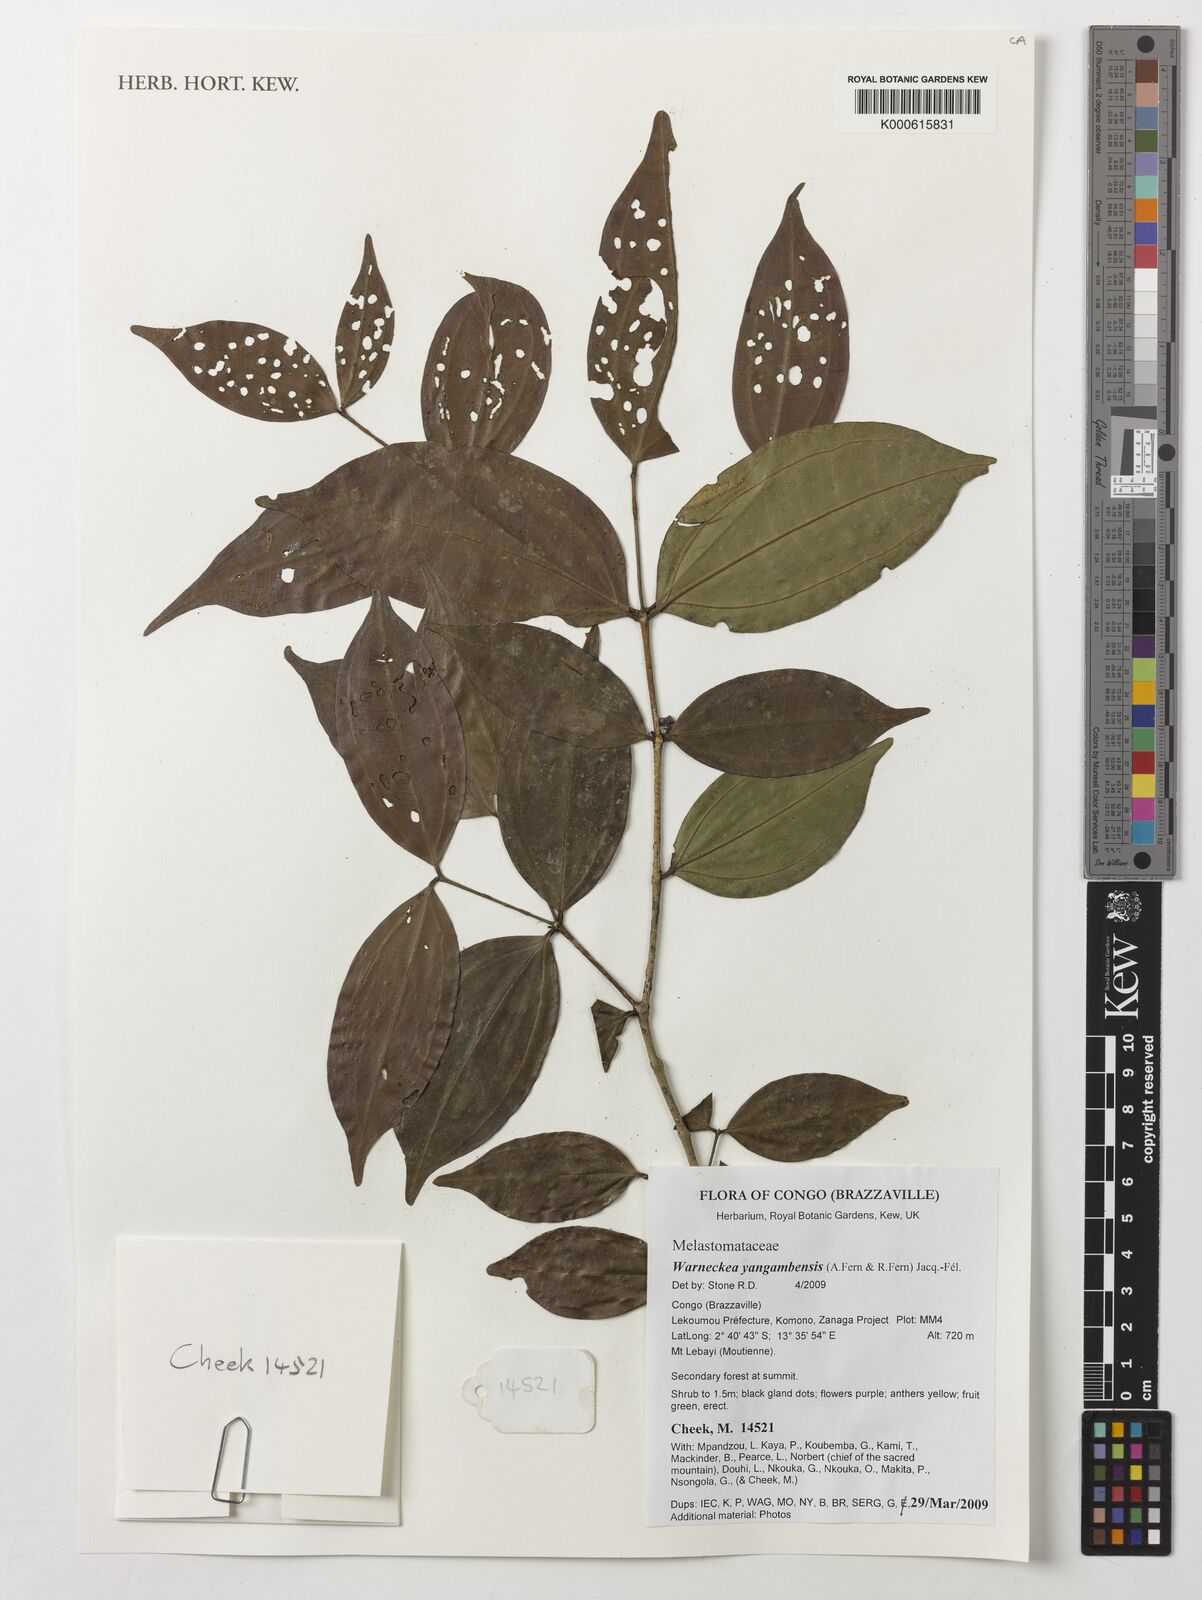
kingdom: Plantae
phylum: Tracheophyta
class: Magnoliopsida
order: Myrtales
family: Melastomataceae
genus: Warneckea
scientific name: Warneckea yangambensis
